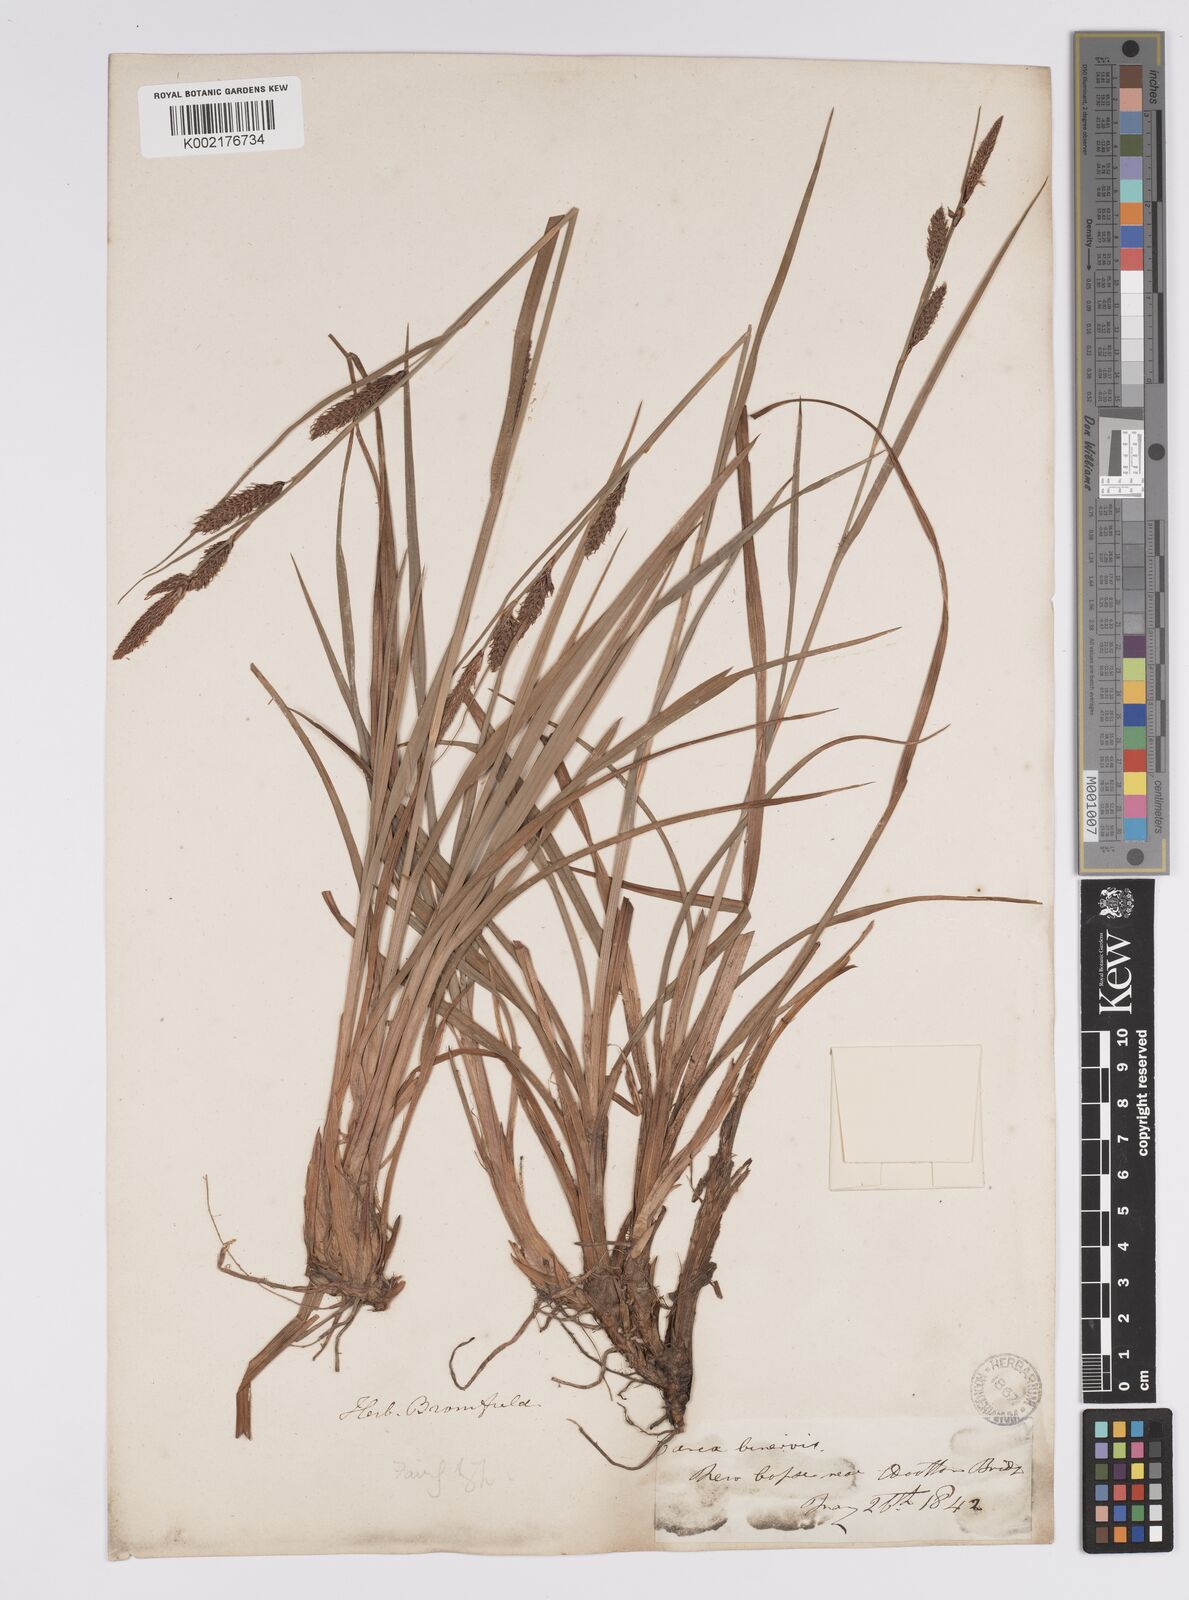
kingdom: Plantae
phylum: Tracheophyta
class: Liliopsida
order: Poales
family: Cyperaceae
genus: Carex
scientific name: Carex binervis
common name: Green-ribbed sedge
